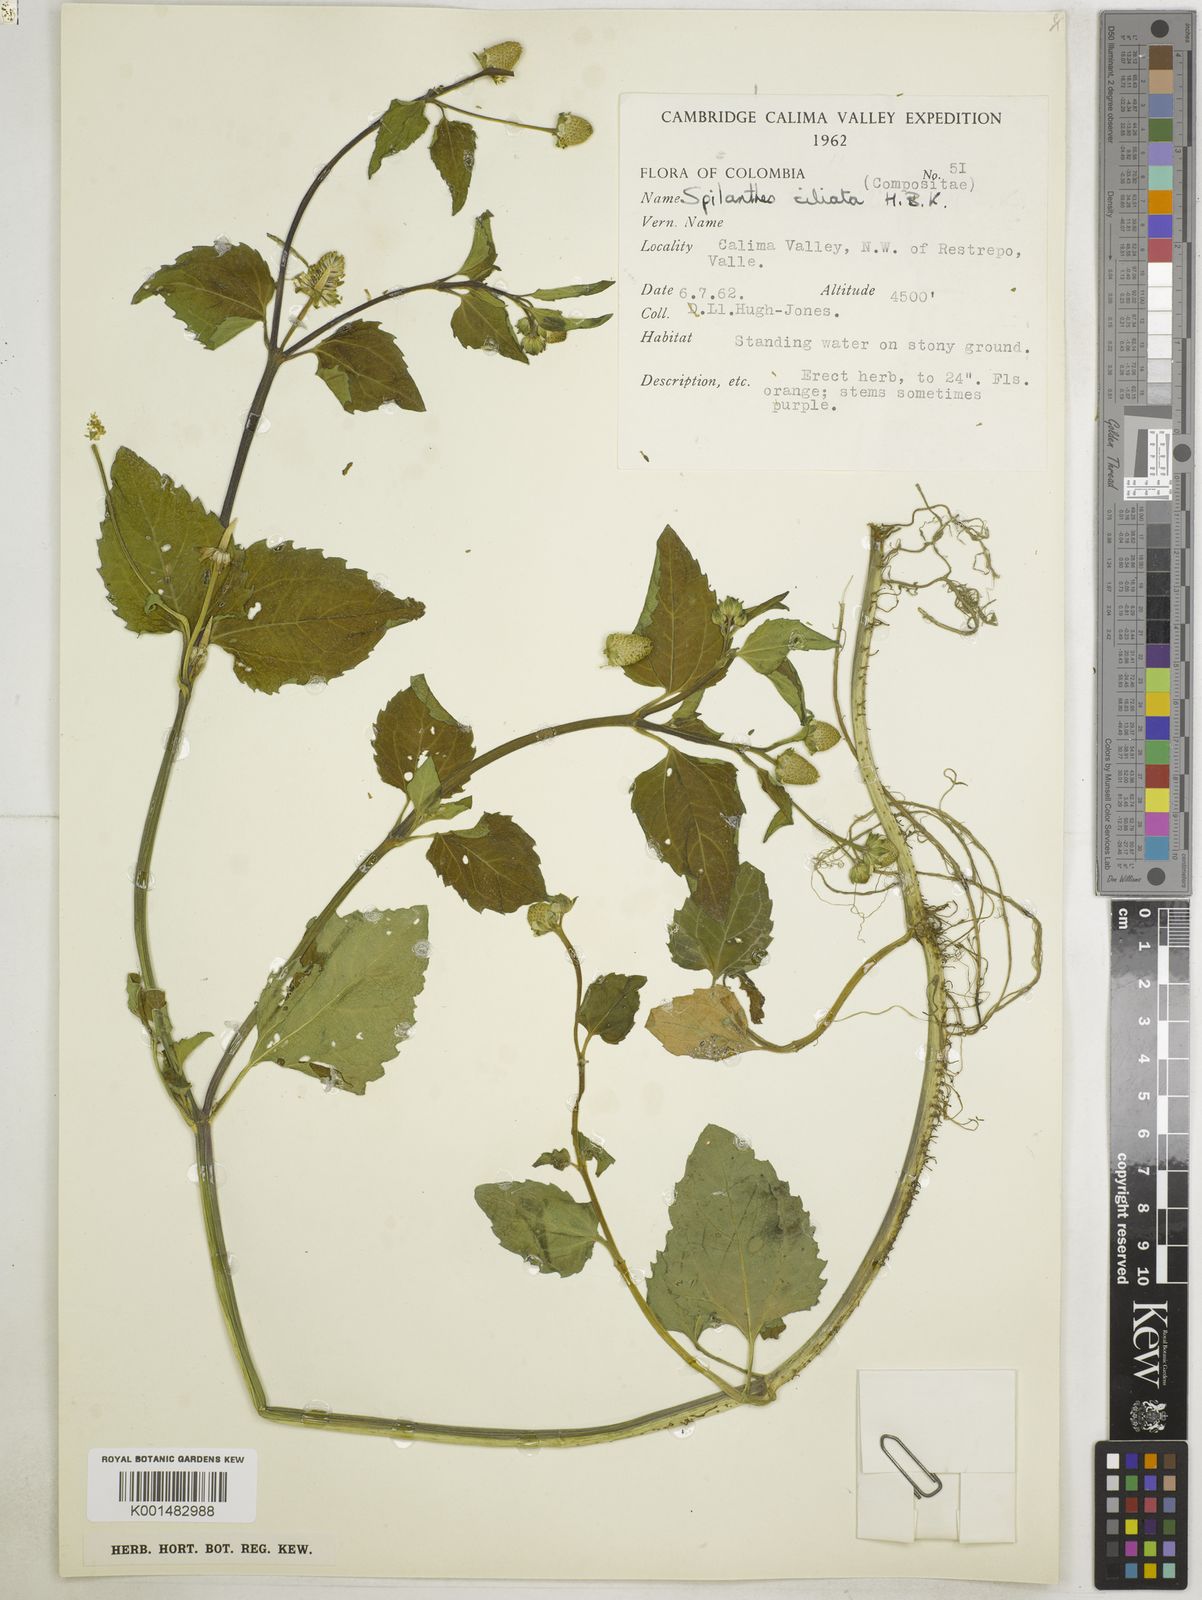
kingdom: Plantae
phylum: Tracheophyta
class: Magnoliopsida
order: Asterales
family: Asteraceae
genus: Acmella
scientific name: Acmella ciliata
